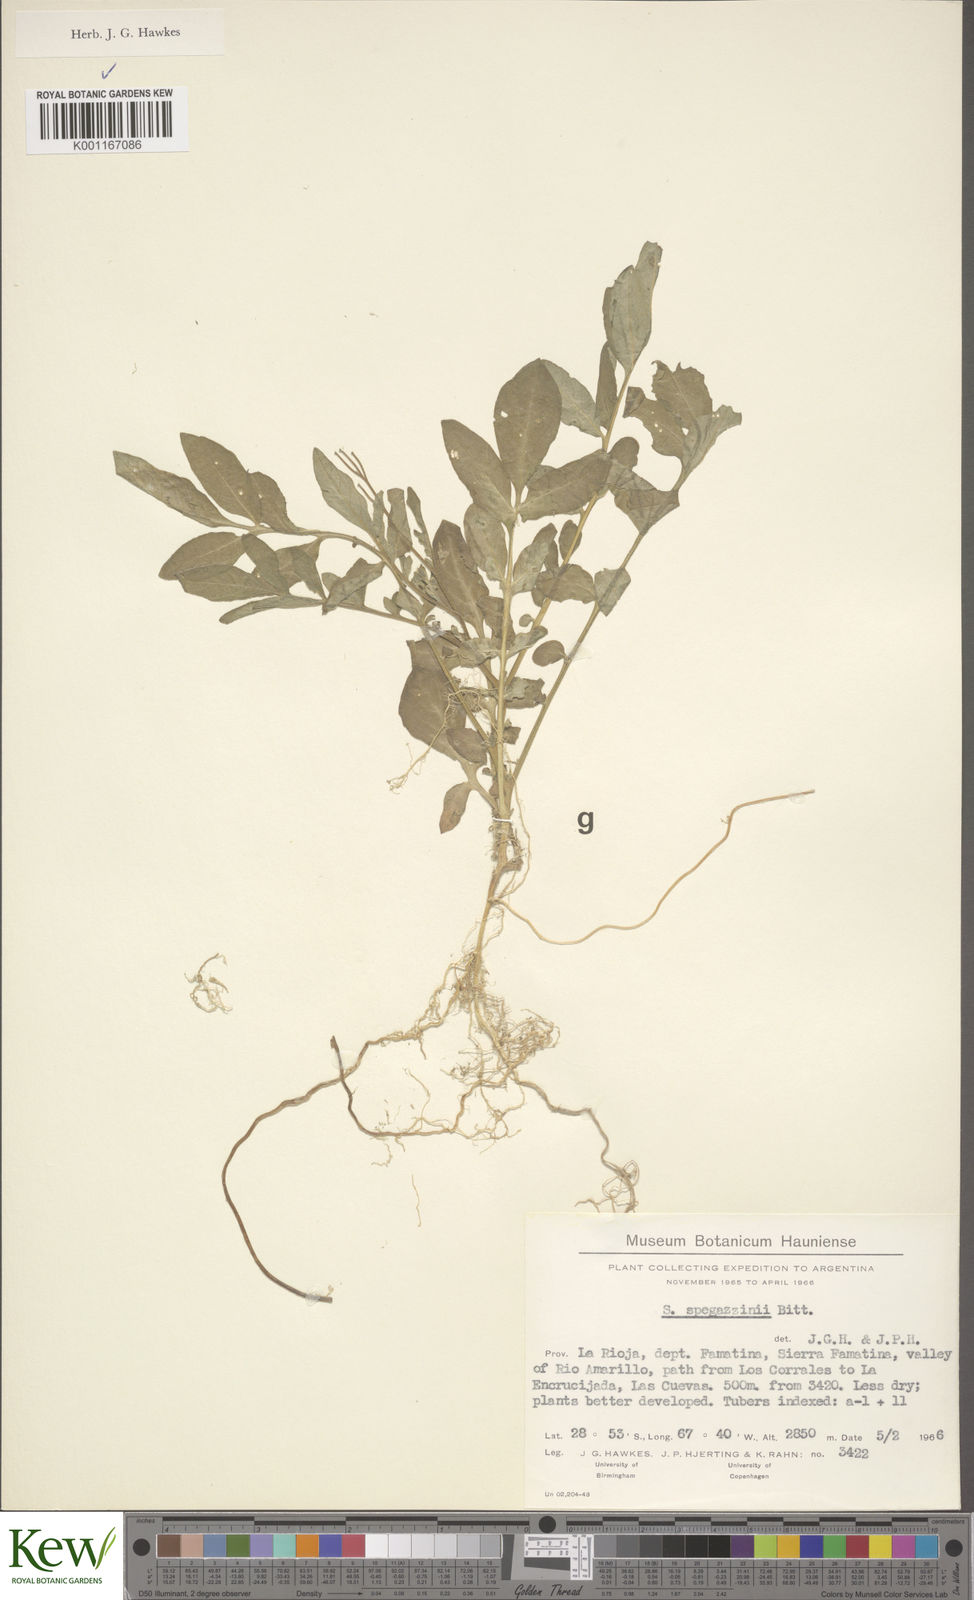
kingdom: Plantae
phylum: Tracheophyta
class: Magnoliopsida
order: Solanales
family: Solanaceae
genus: Solanum
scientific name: Solanum brevicaule
